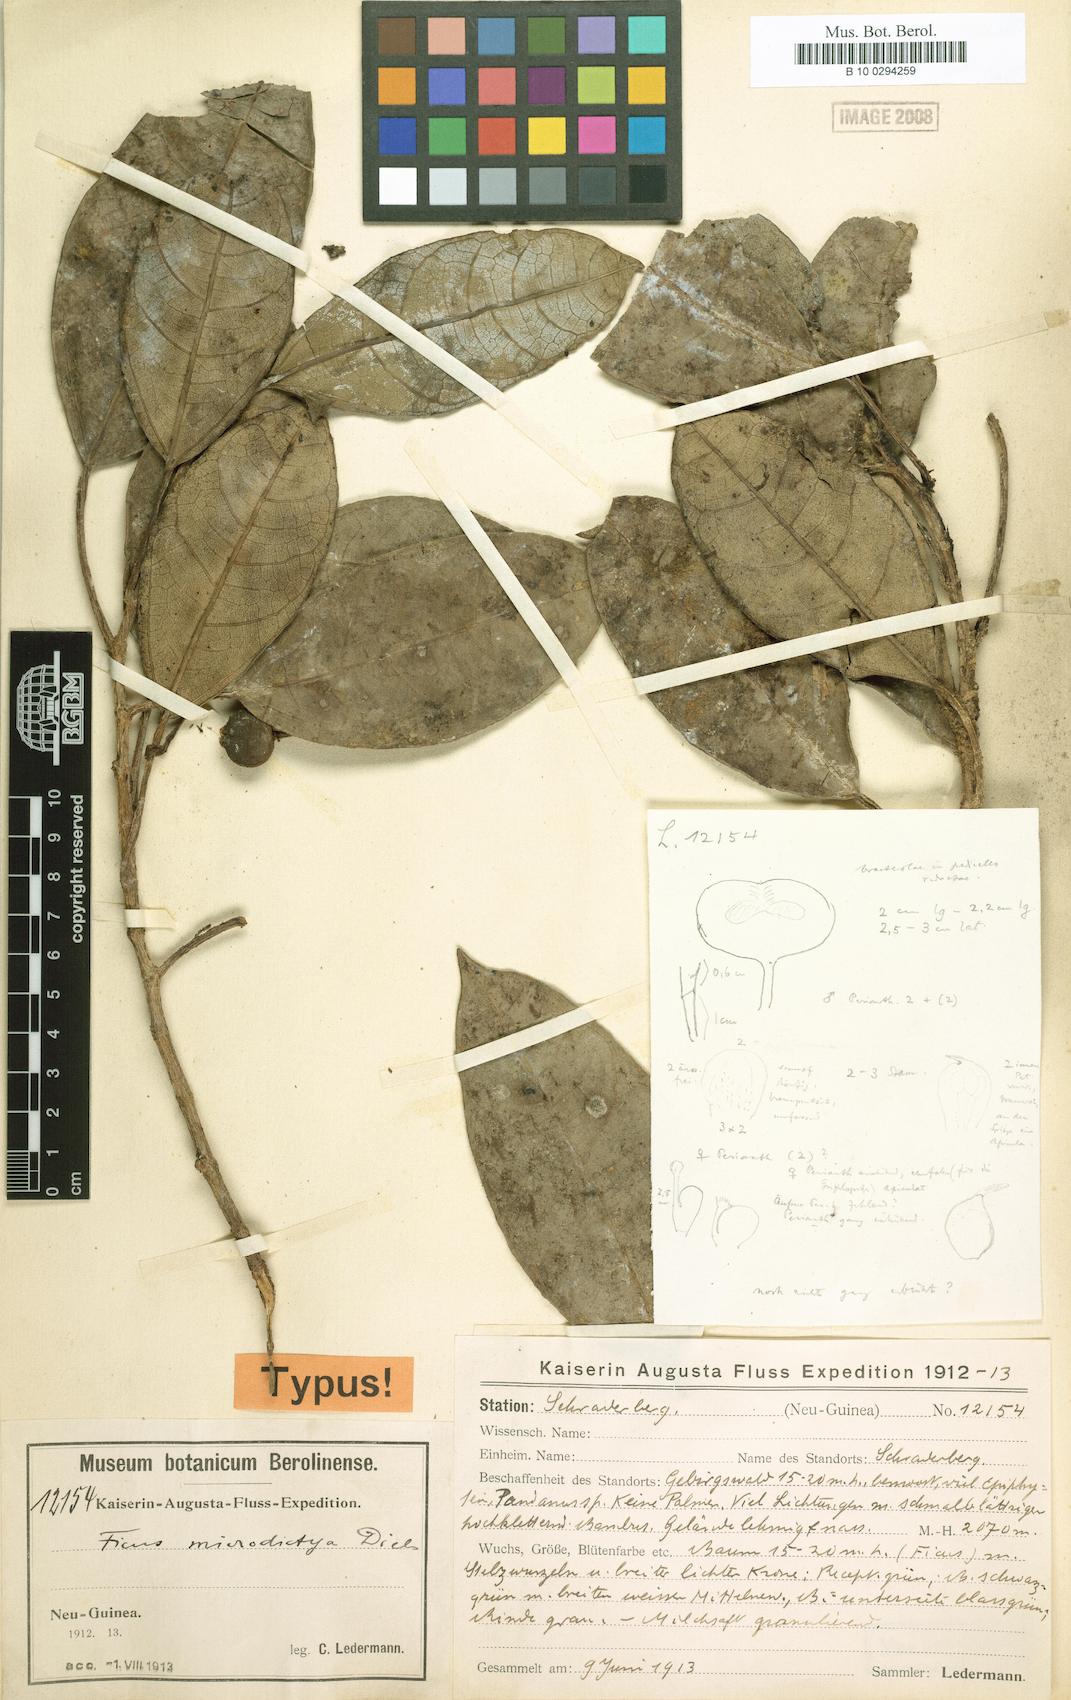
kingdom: Plantae
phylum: Tracheophyta
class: Magnoliopsida
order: Rosales
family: Moraceae
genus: Ficus
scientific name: Ficus microdictya
